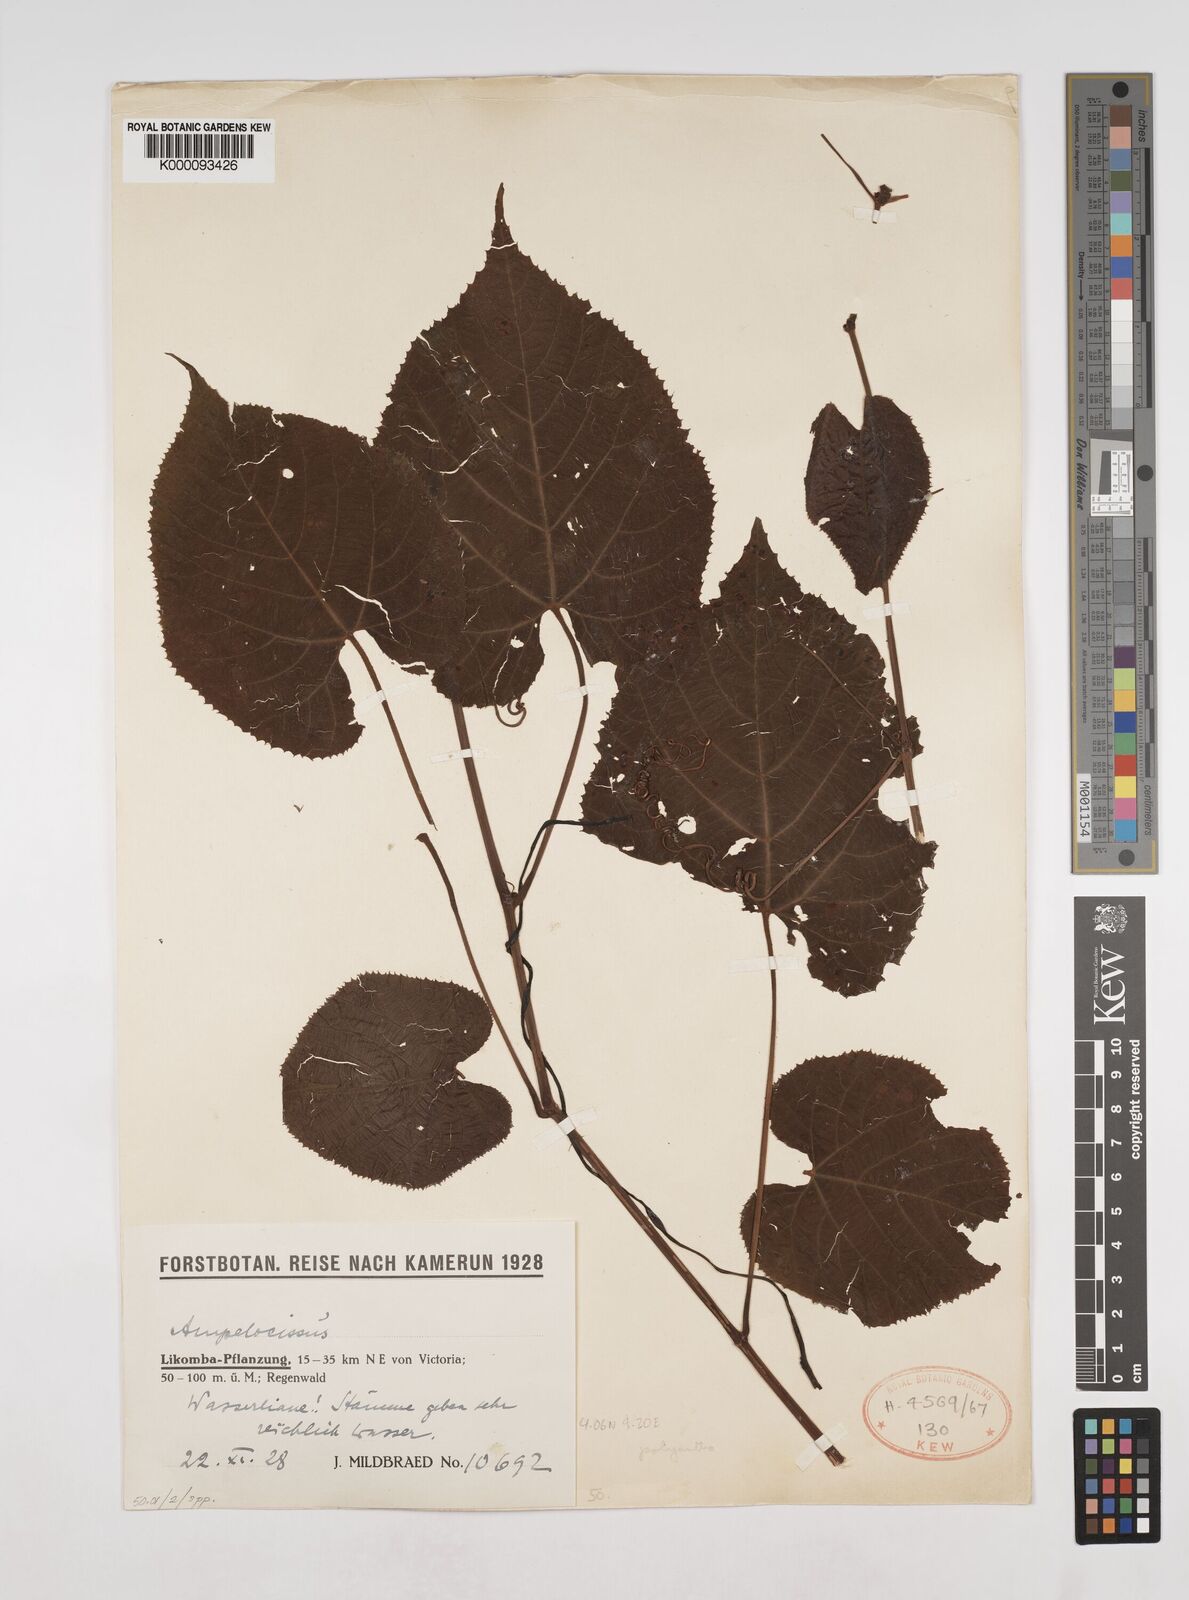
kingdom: Plantae
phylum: Tracheophyta
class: Magnoliopsida
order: Vitales
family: Vitaceae
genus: Ampelocissus
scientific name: Ampelocissus
